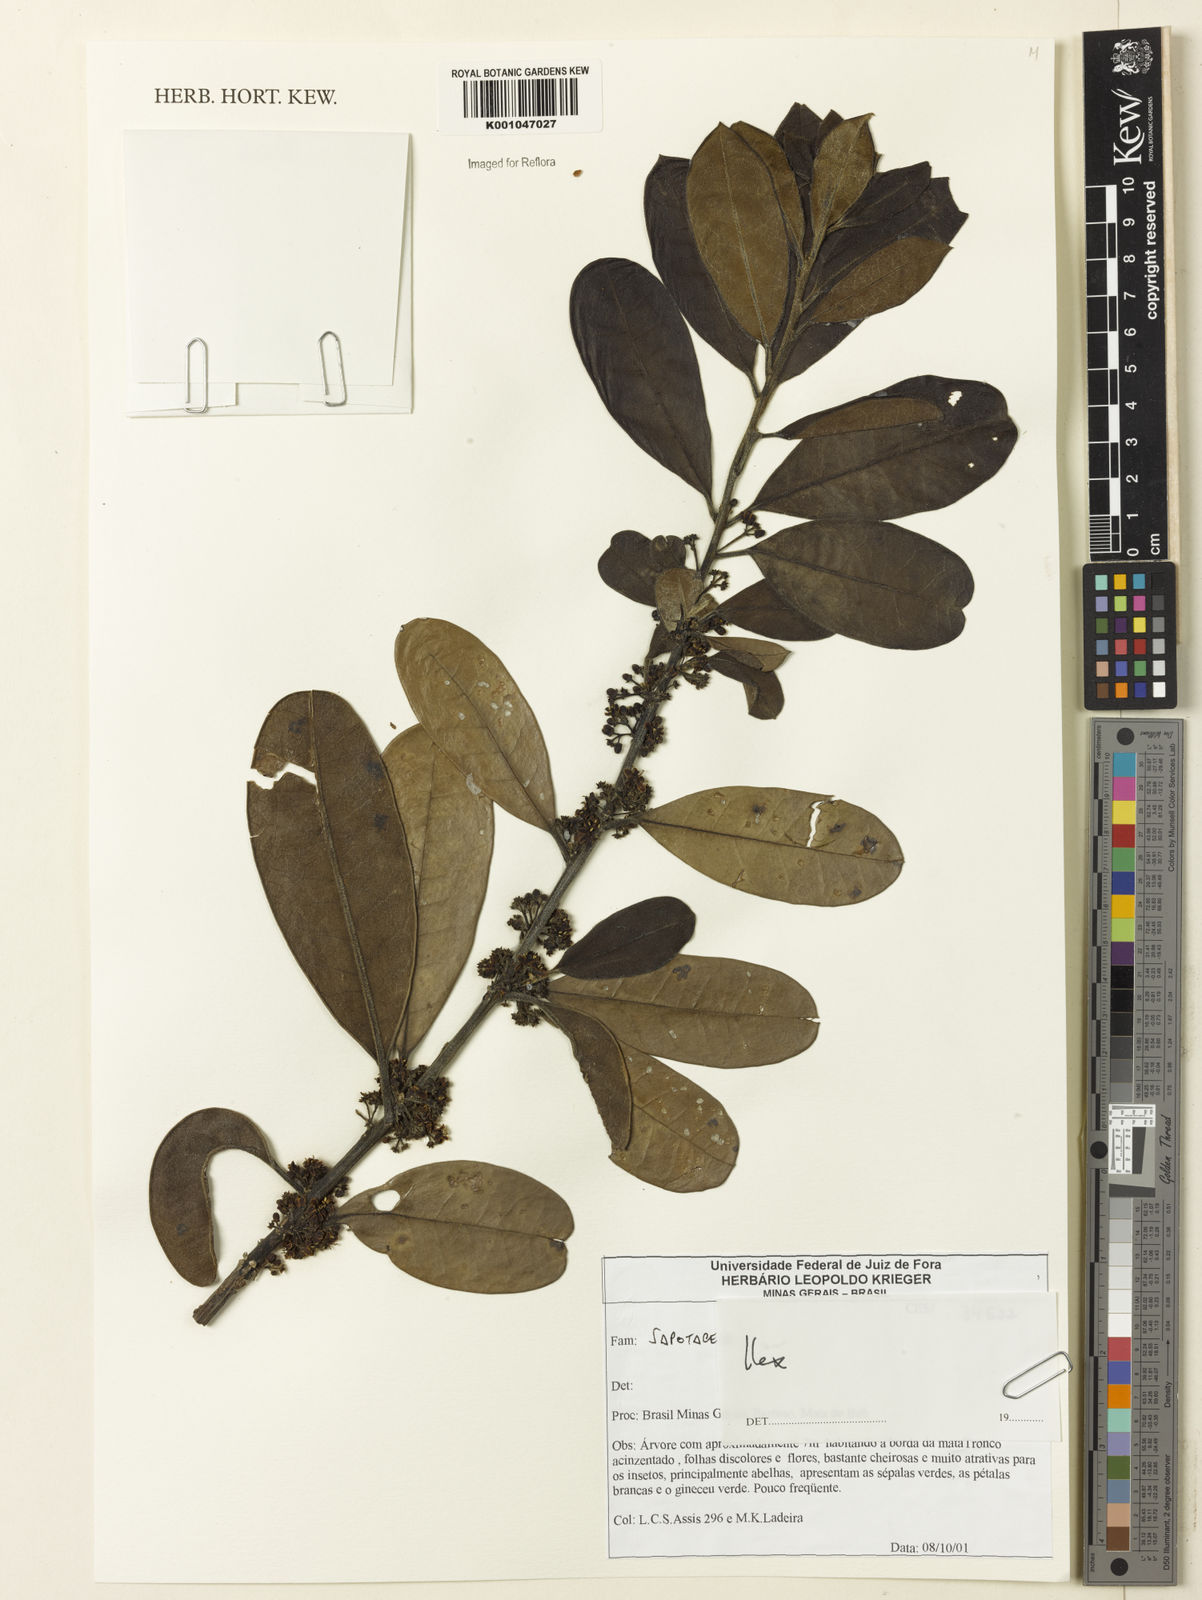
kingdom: Plantae
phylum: Tracheophyta
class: Magnoliopsida
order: Aquifoliales
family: Aquifoliaceae
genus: Ilex
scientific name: Ilex
